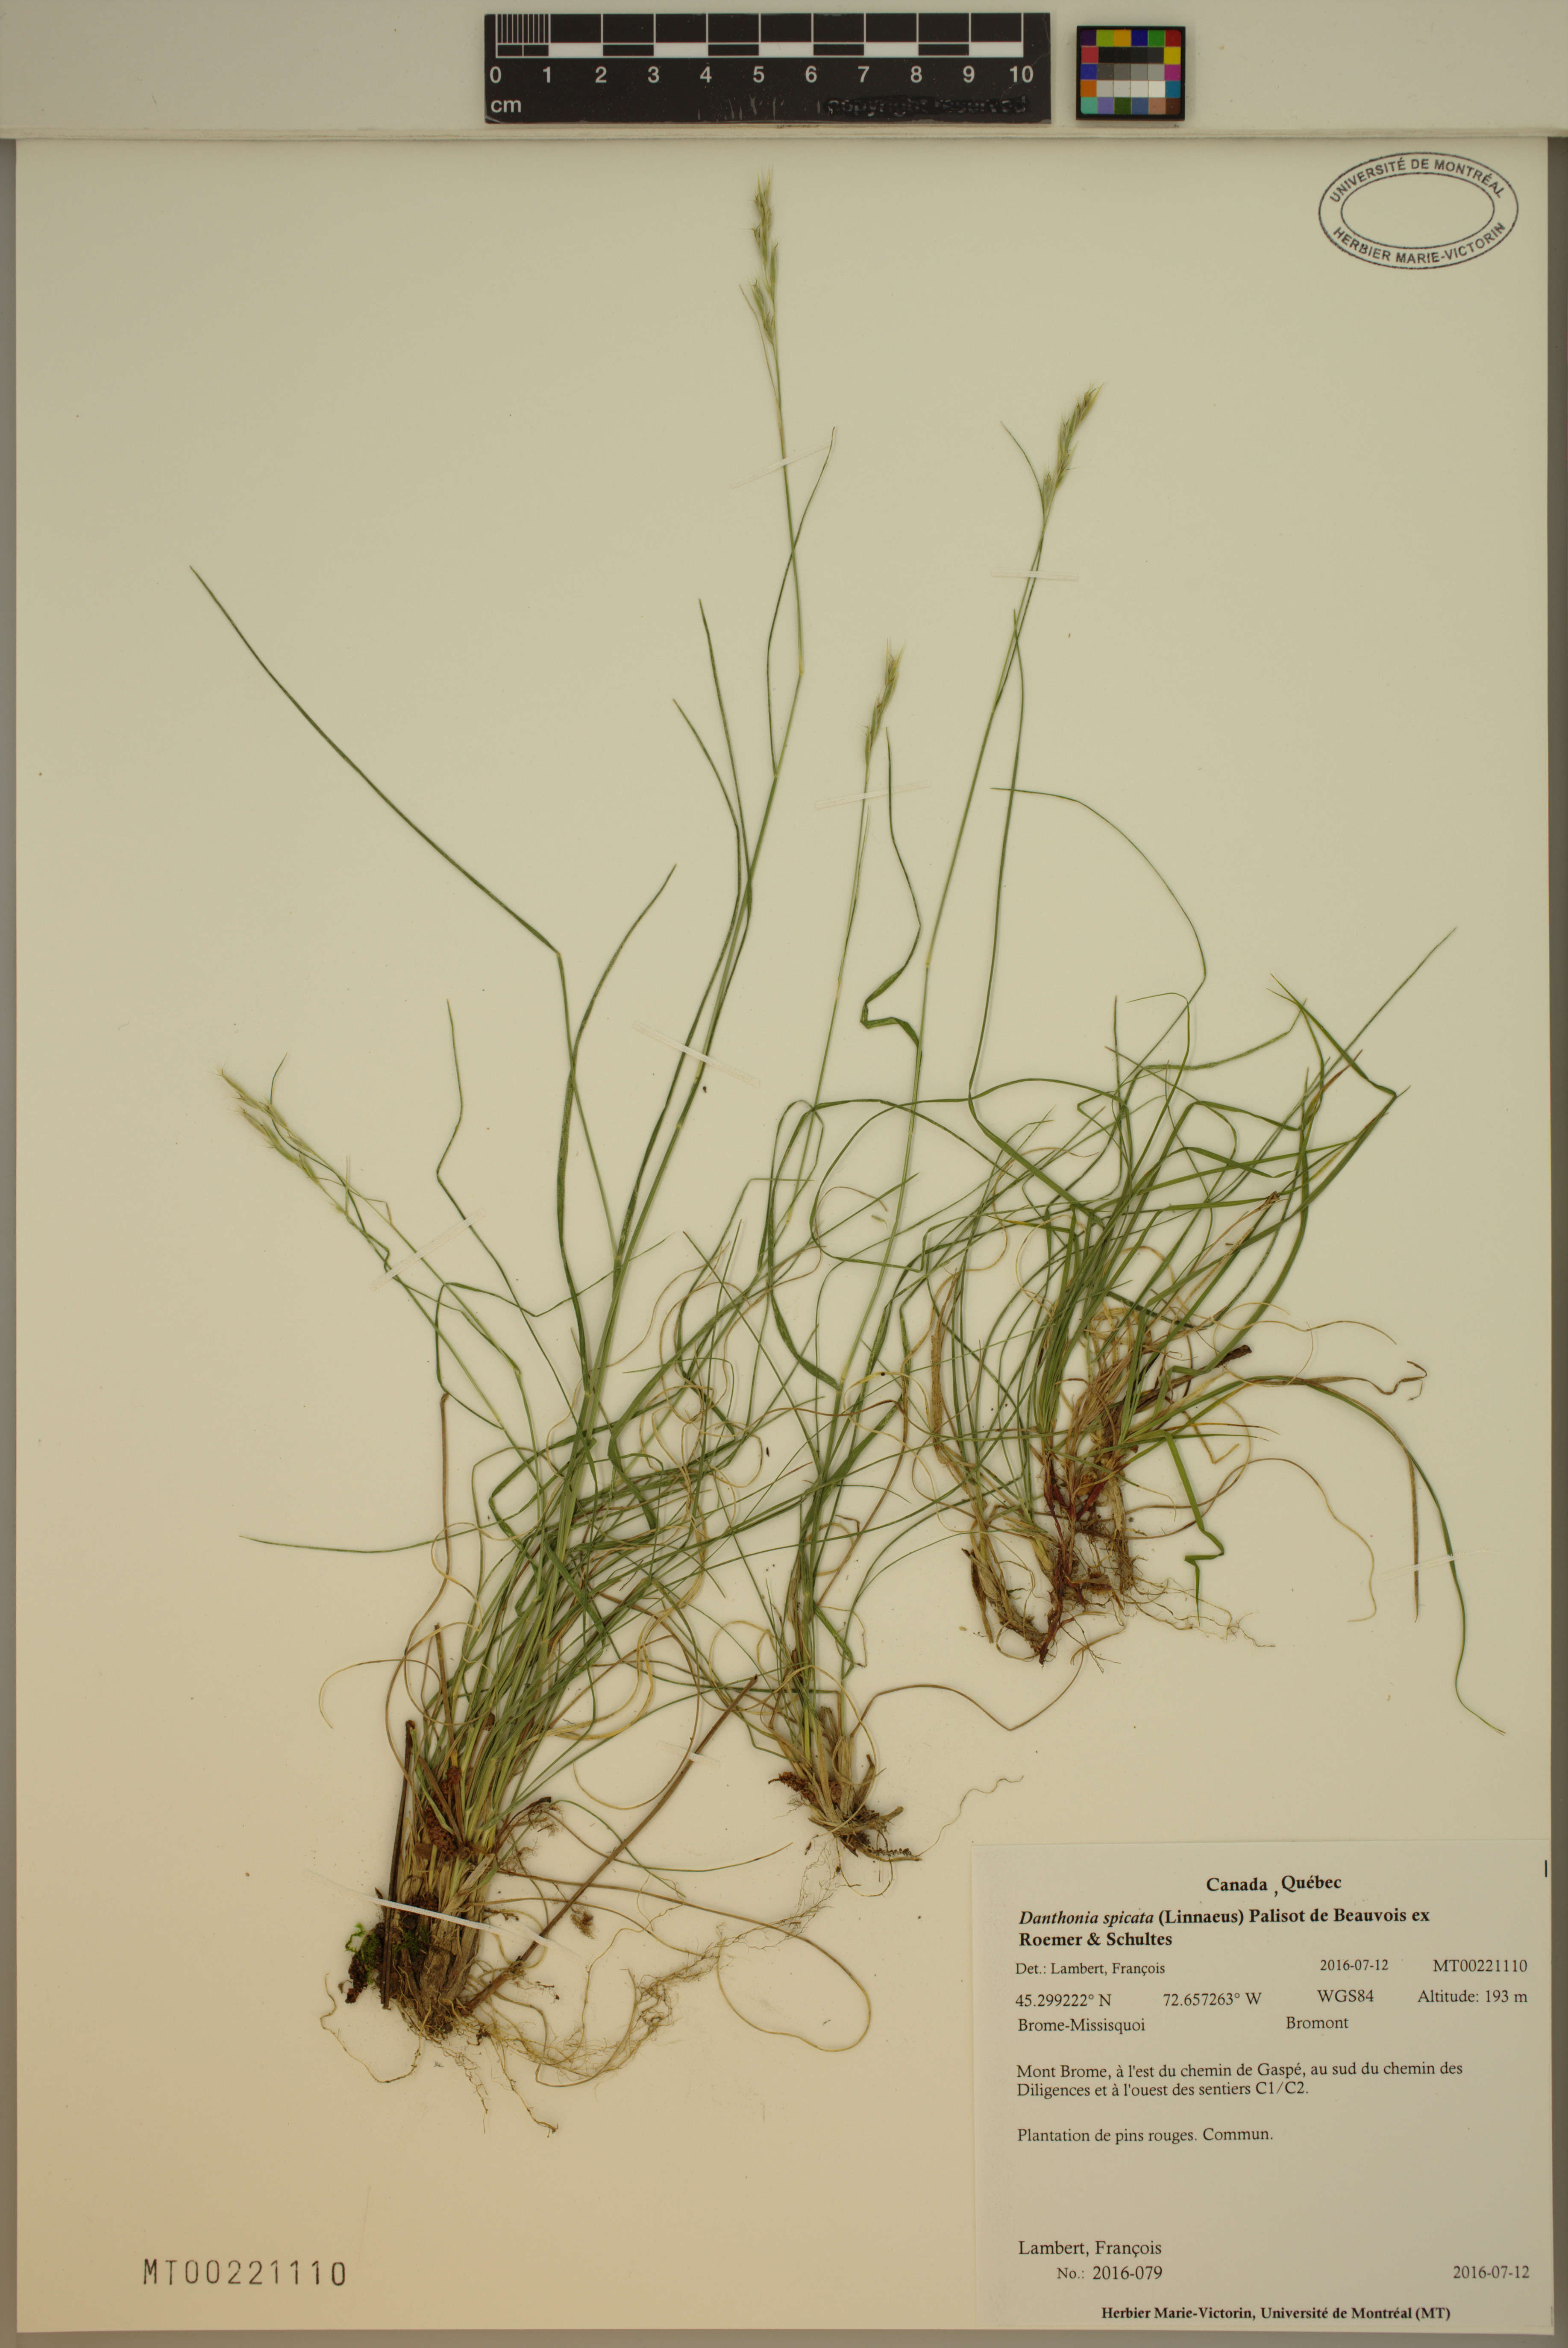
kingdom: Plantae
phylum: Tracheophyta
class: Liliopsida
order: Poales
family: Poaceae
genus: Danthonia
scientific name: Danthonia spicata
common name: Common wild oatgrass
